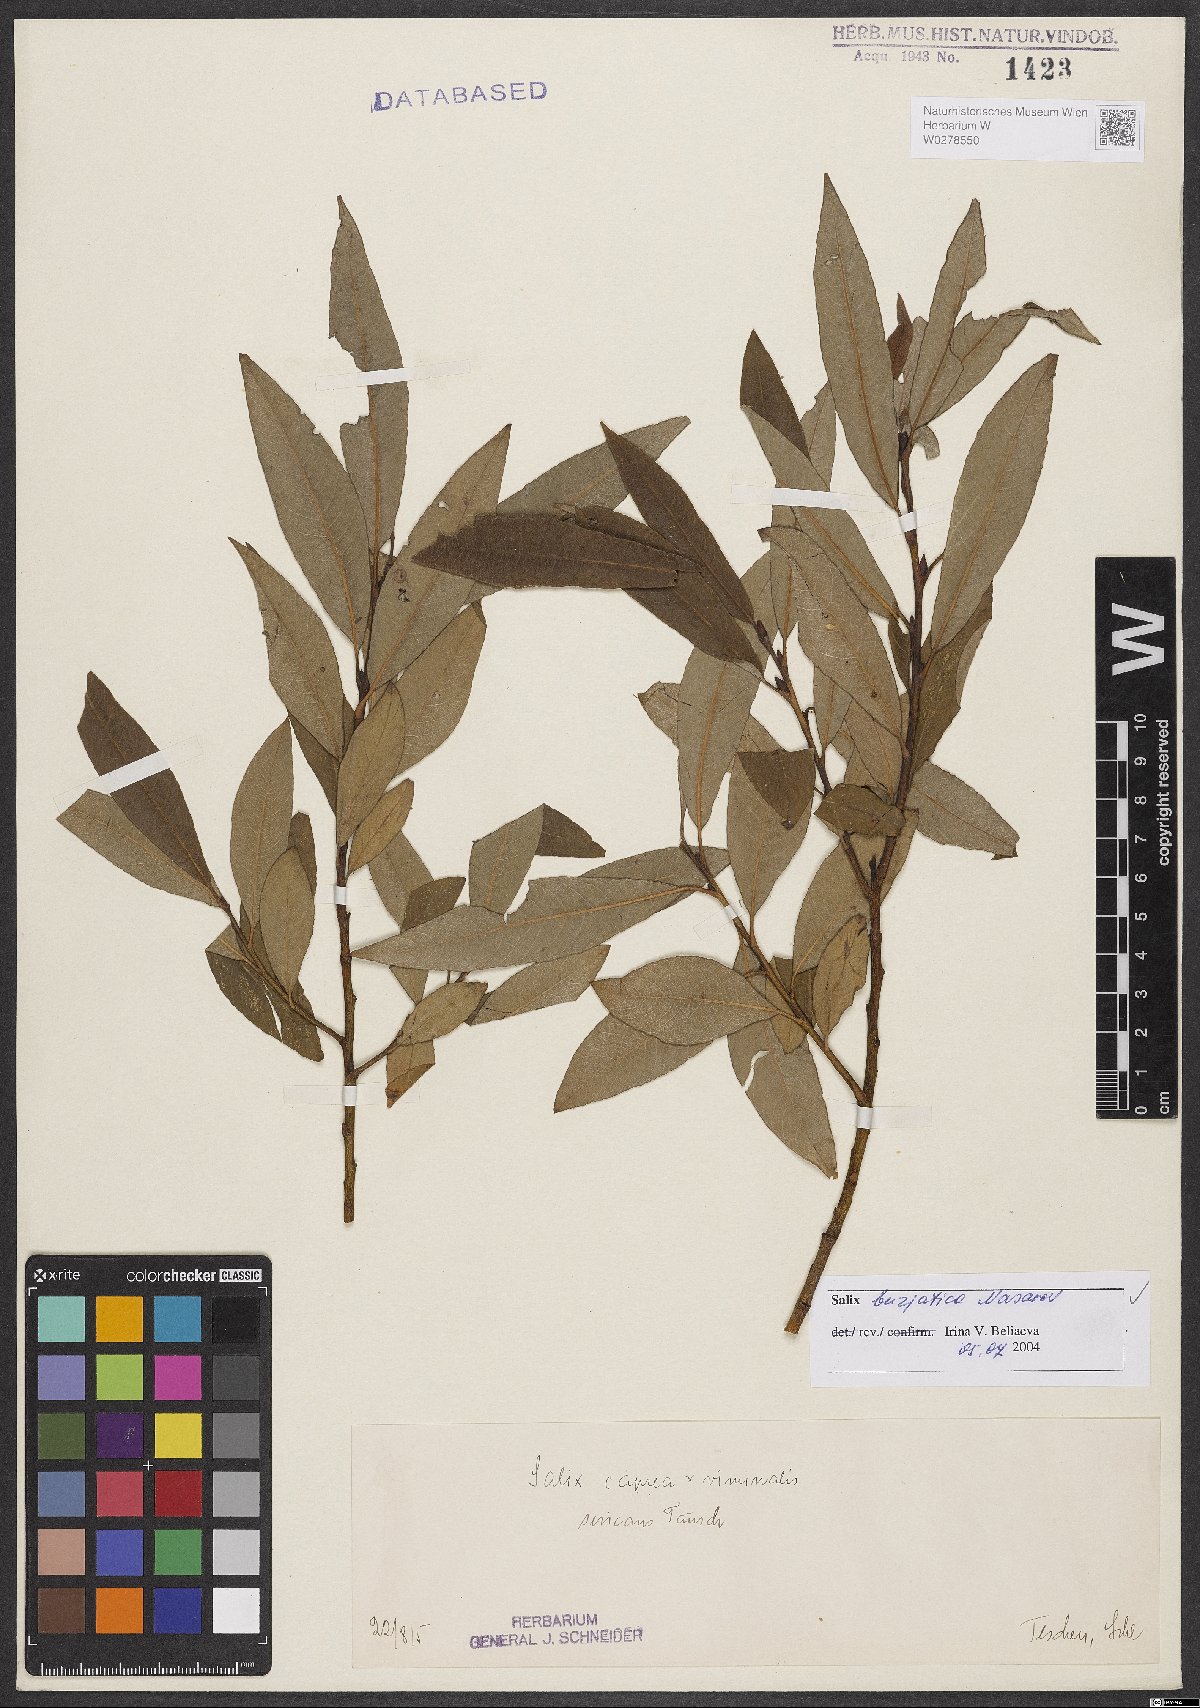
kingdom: Plantae
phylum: Tracheophyta
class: Magnoliopsida
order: Malpighiales
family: Salicaceae
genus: Salix
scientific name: Salix gmelinii
